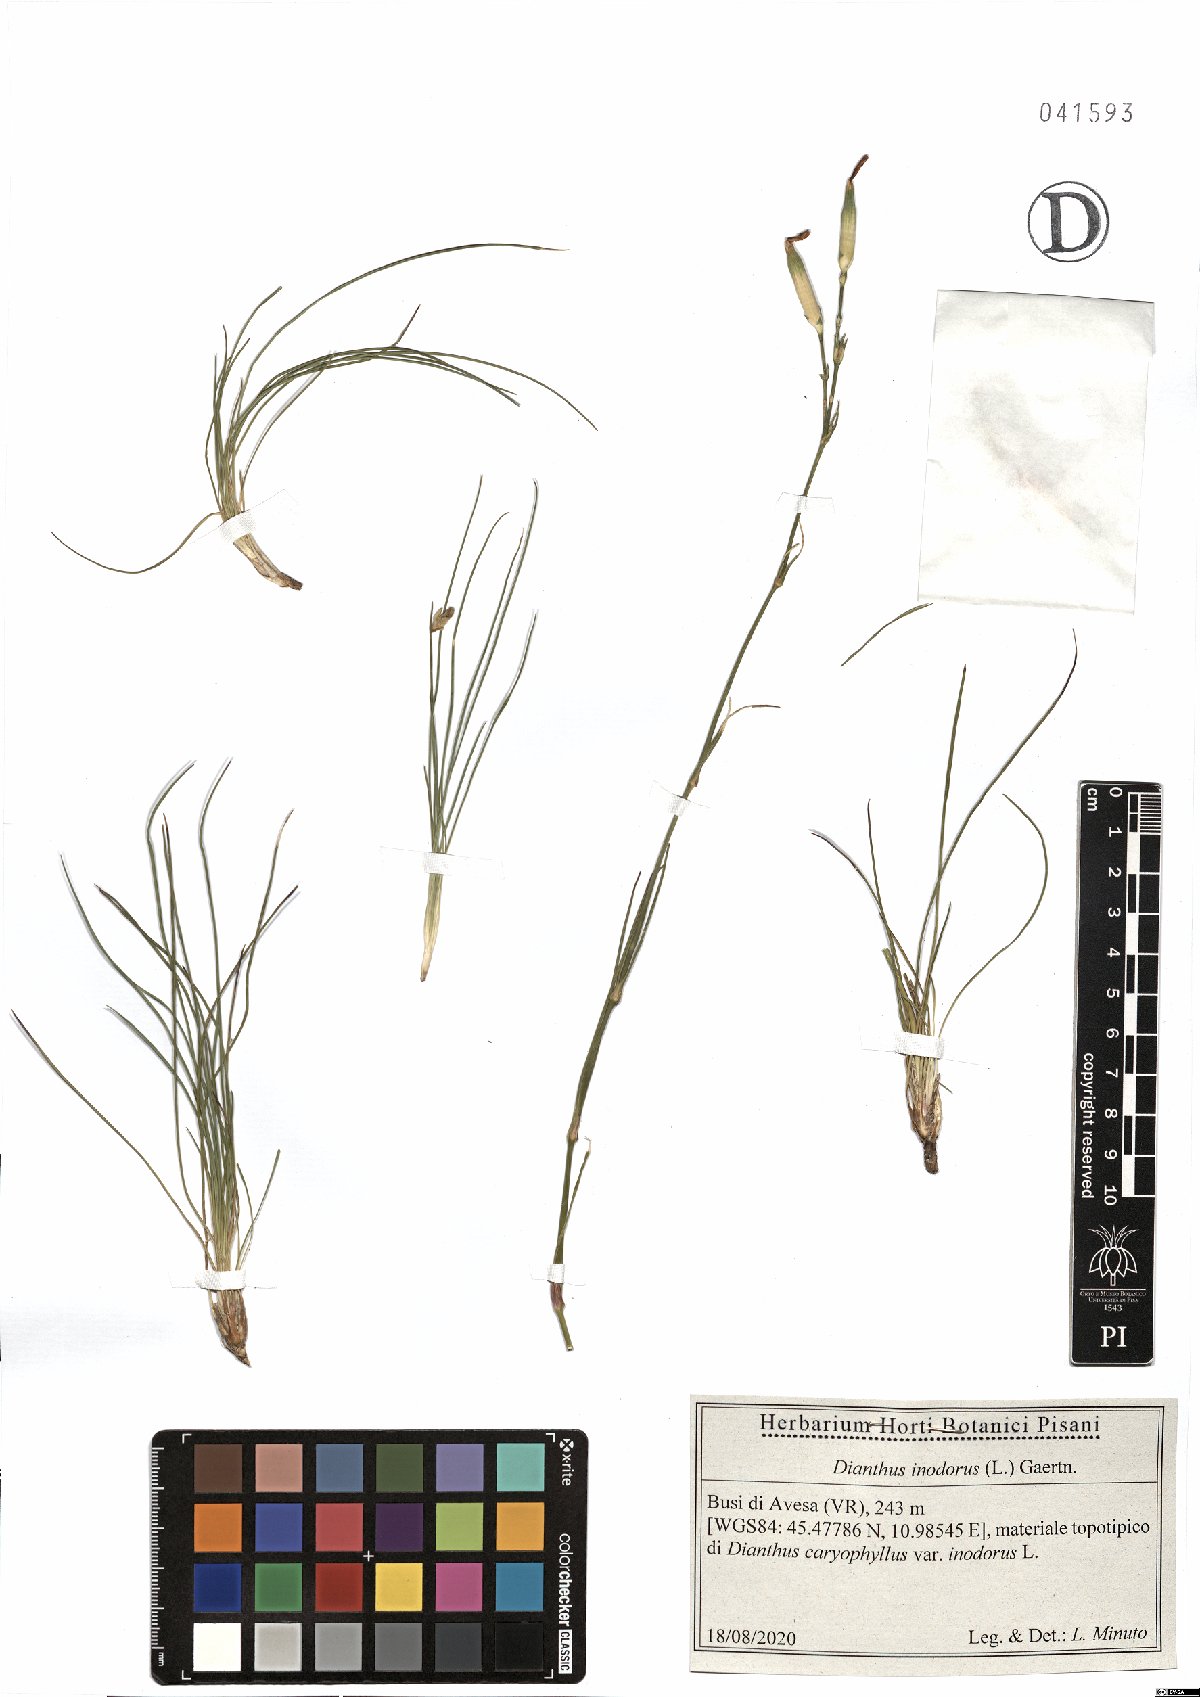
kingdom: Plantae
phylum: Tracheophyta
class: Magnoliopsida
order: Caryophyllales
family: Caryophyllaceae
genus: Dianthus
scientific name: Dianthus sylvestris
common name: Wood pink
